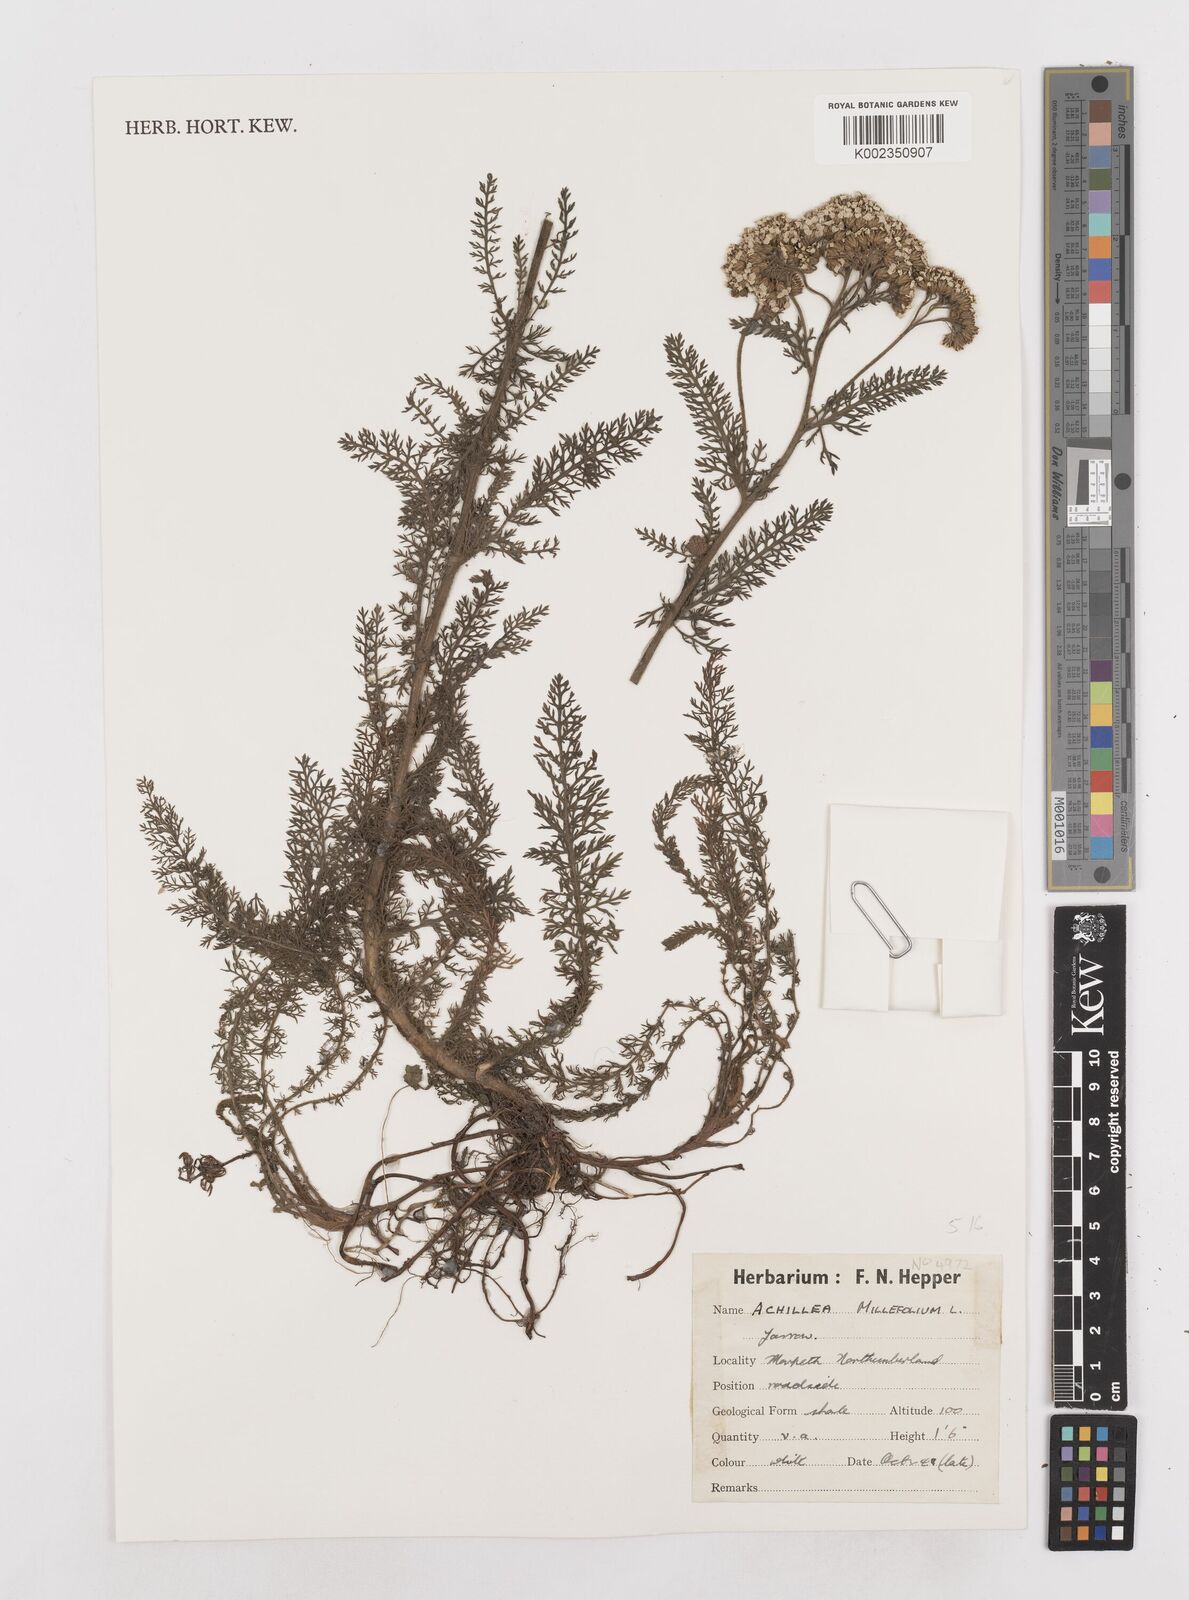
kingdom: Plantae
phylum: Tracheophyta
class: Magnoliopsida
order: Asterales
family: Asteraceae
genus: Achillea
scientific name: Achillea millefolium
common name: Yarrow
